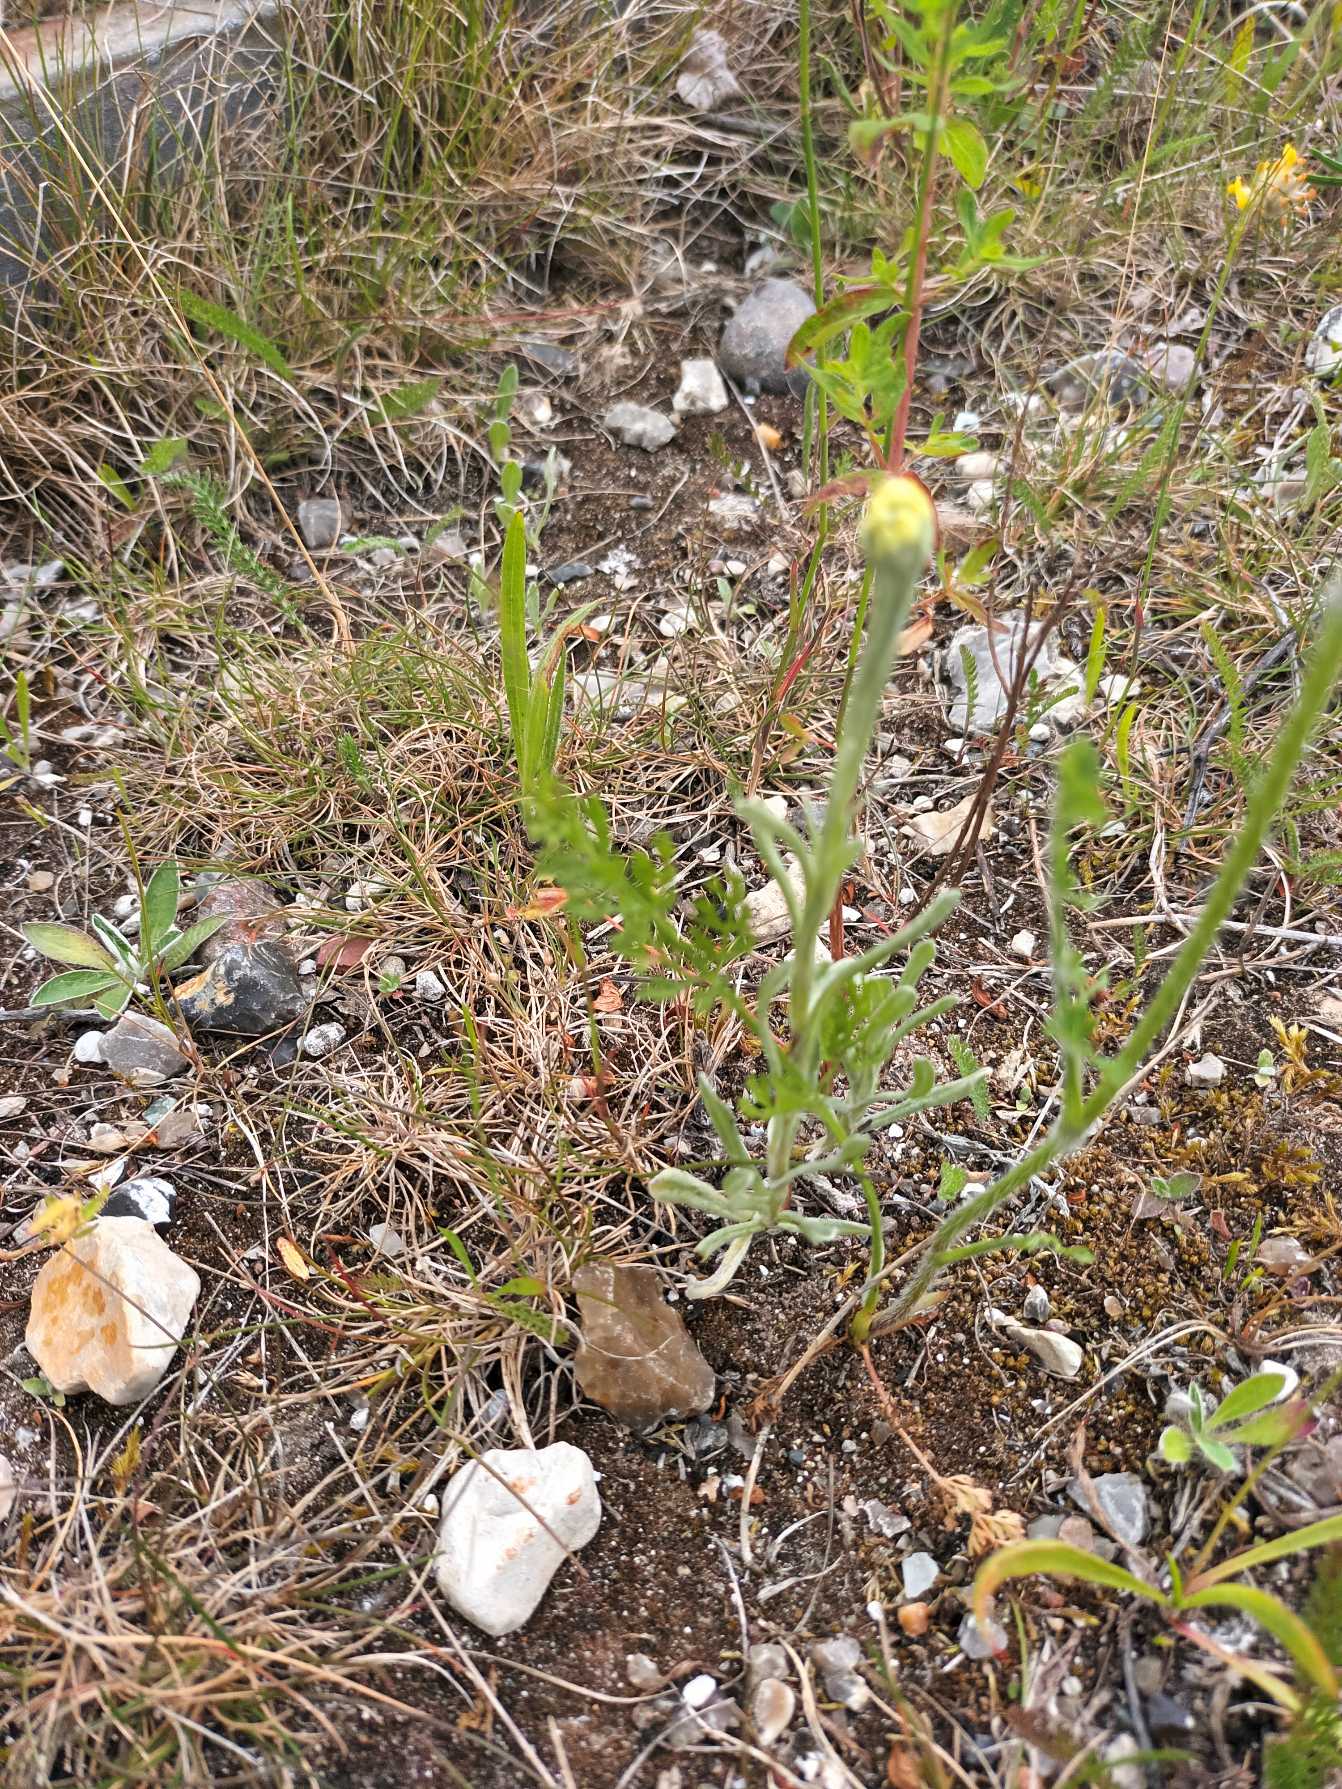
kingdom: Plantae
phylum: Tracheophyta
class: Magnoliopsida
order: Asterales
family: Asteraceae
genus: Helichrysum
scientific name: Helichrysum arenarium
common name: Gul evighedsblomst
